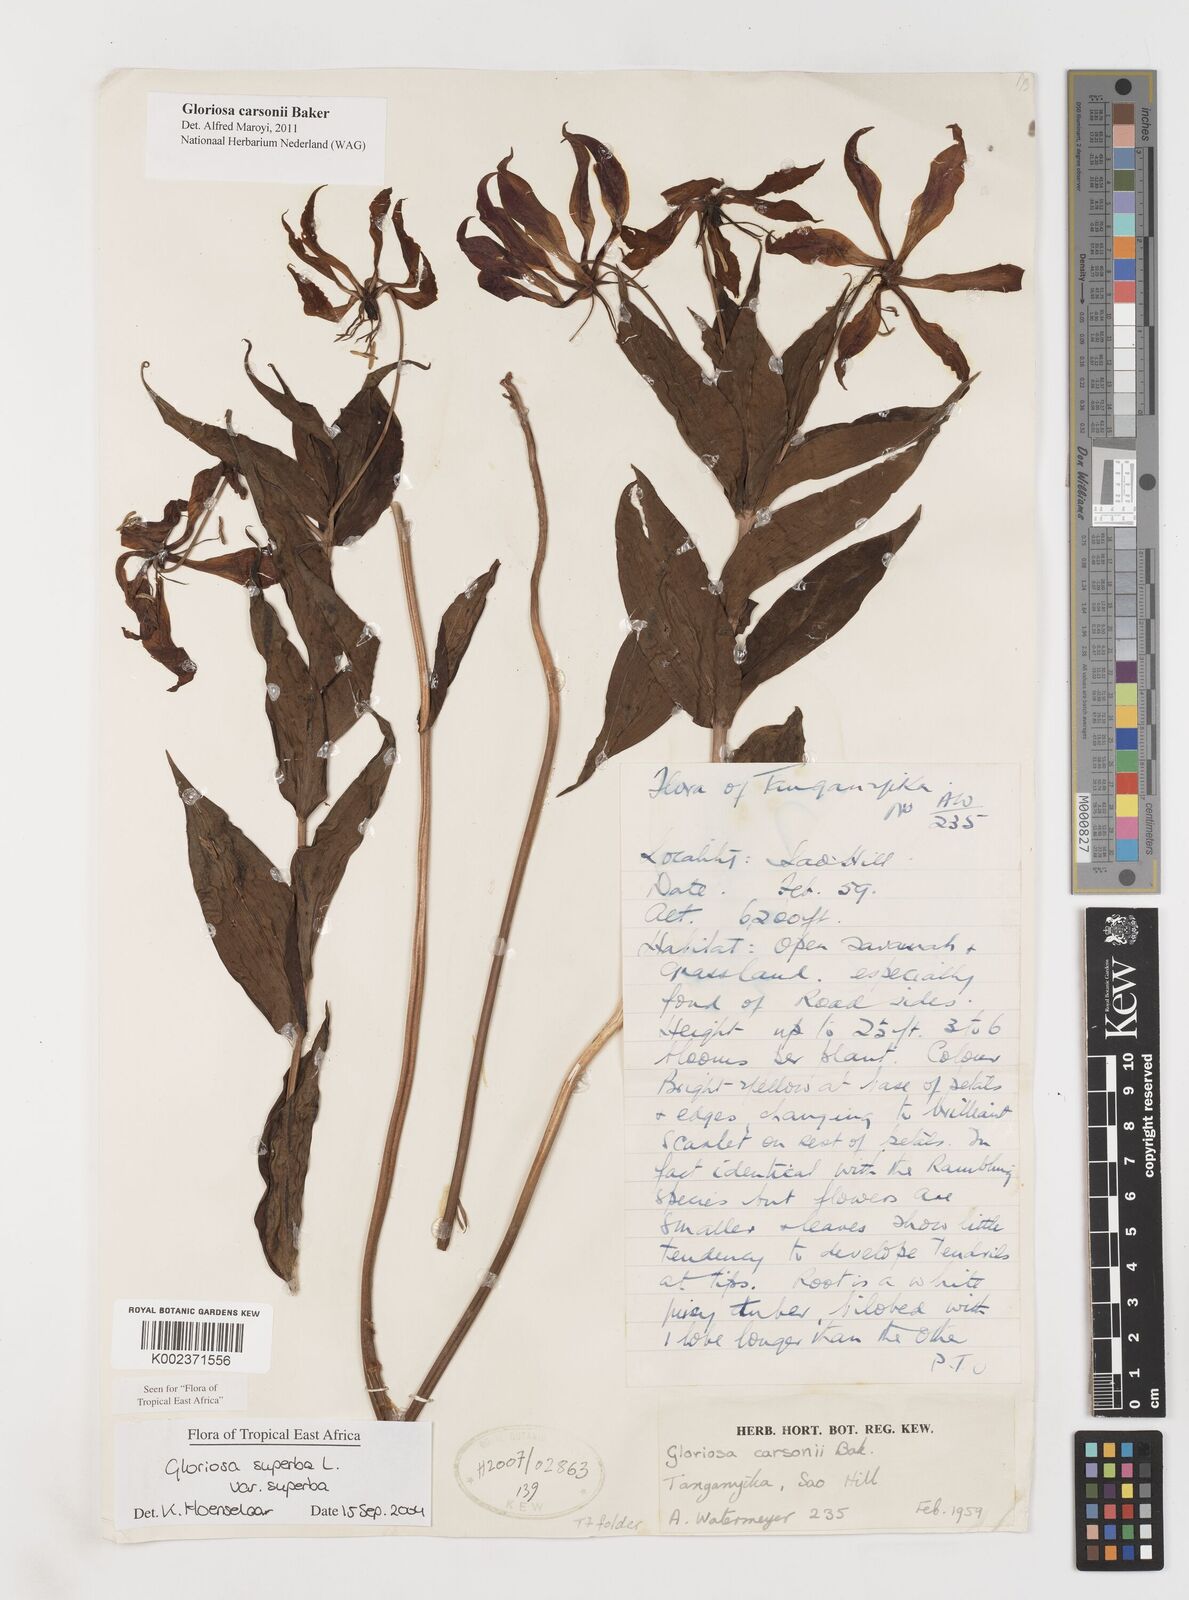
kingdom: Plantae
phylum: Tracheophyta
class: Liliopsida
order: Liliales
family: Colchicaceae
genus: Gloriosa
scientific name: Gloriosa simplex
